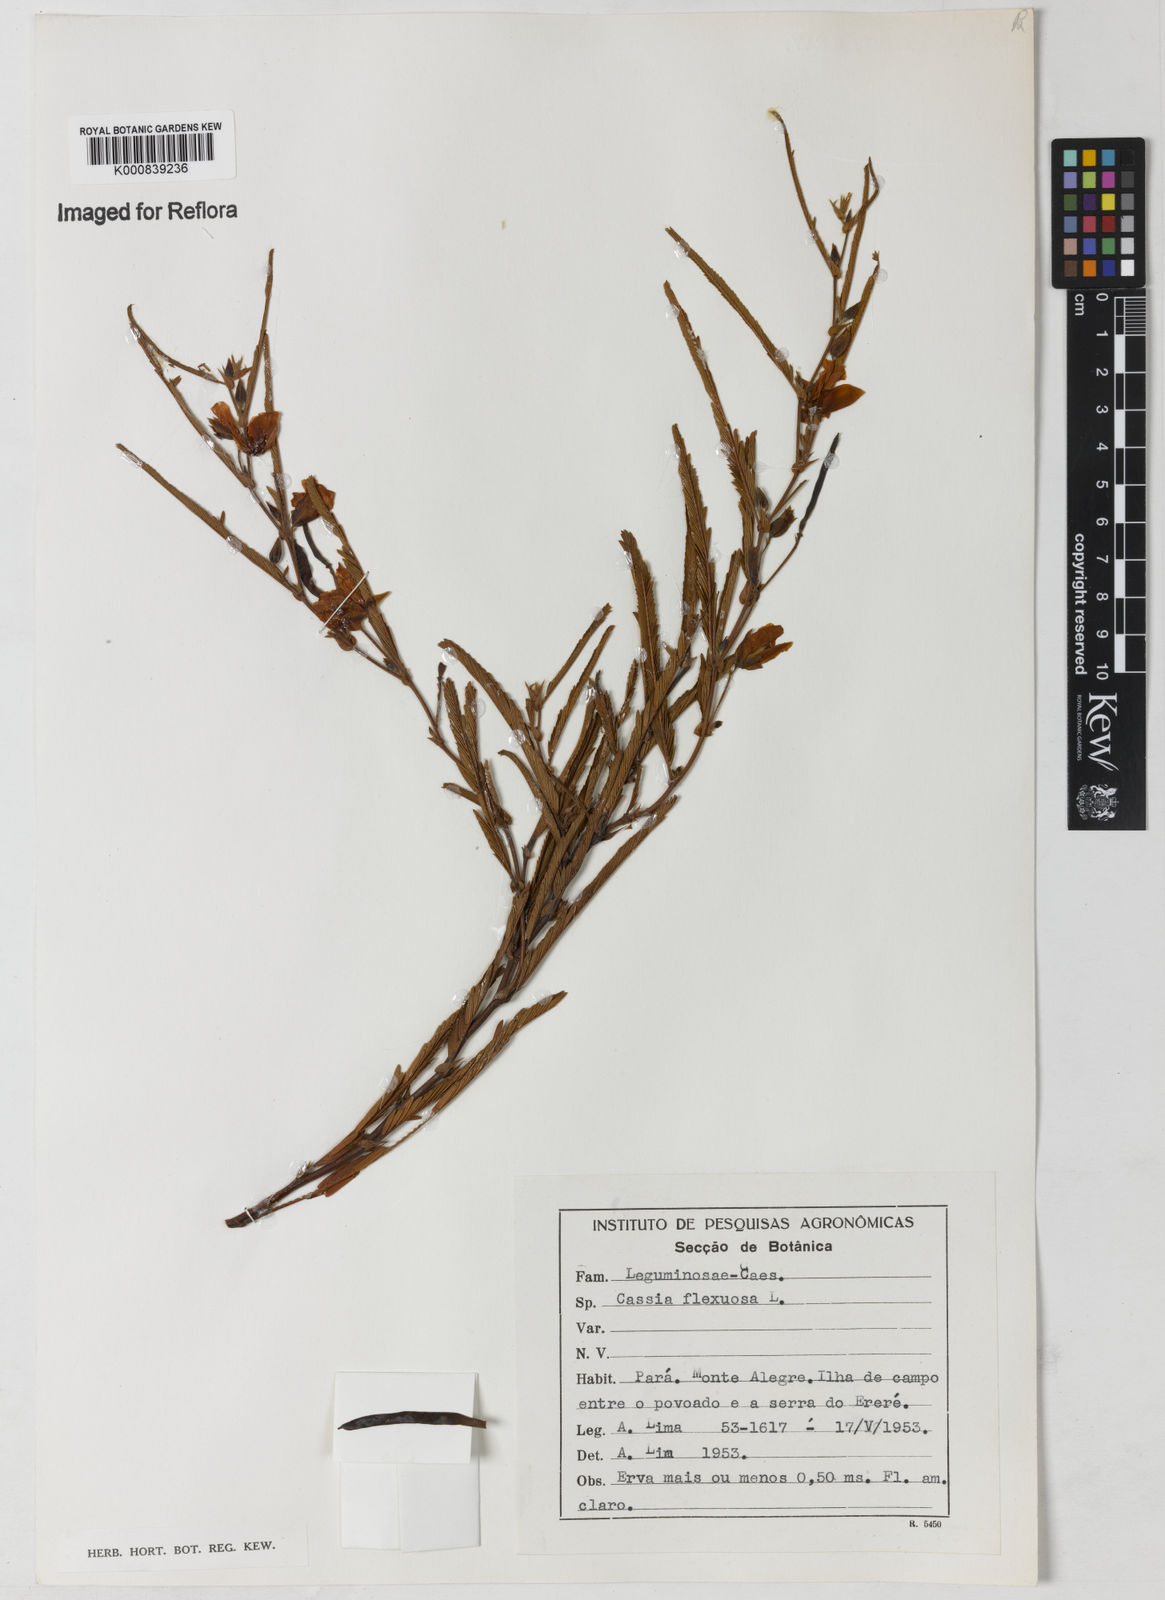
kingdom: Plantae
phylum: Tracheophyta
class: Magnoliopsida
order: Fabales
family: Fabaceae
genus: Chamaecrista
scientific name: Chamaecrista flexuosa
